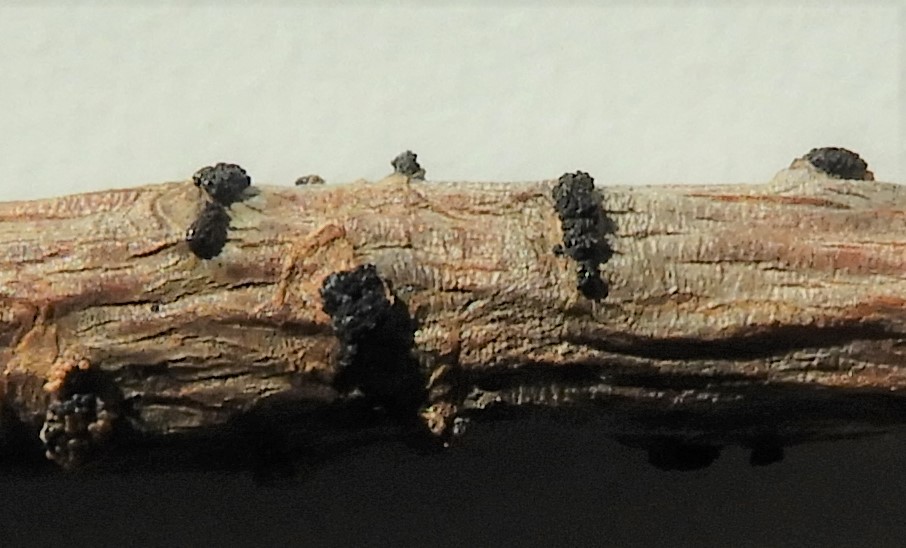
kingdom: Fungi
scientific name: Fungi
